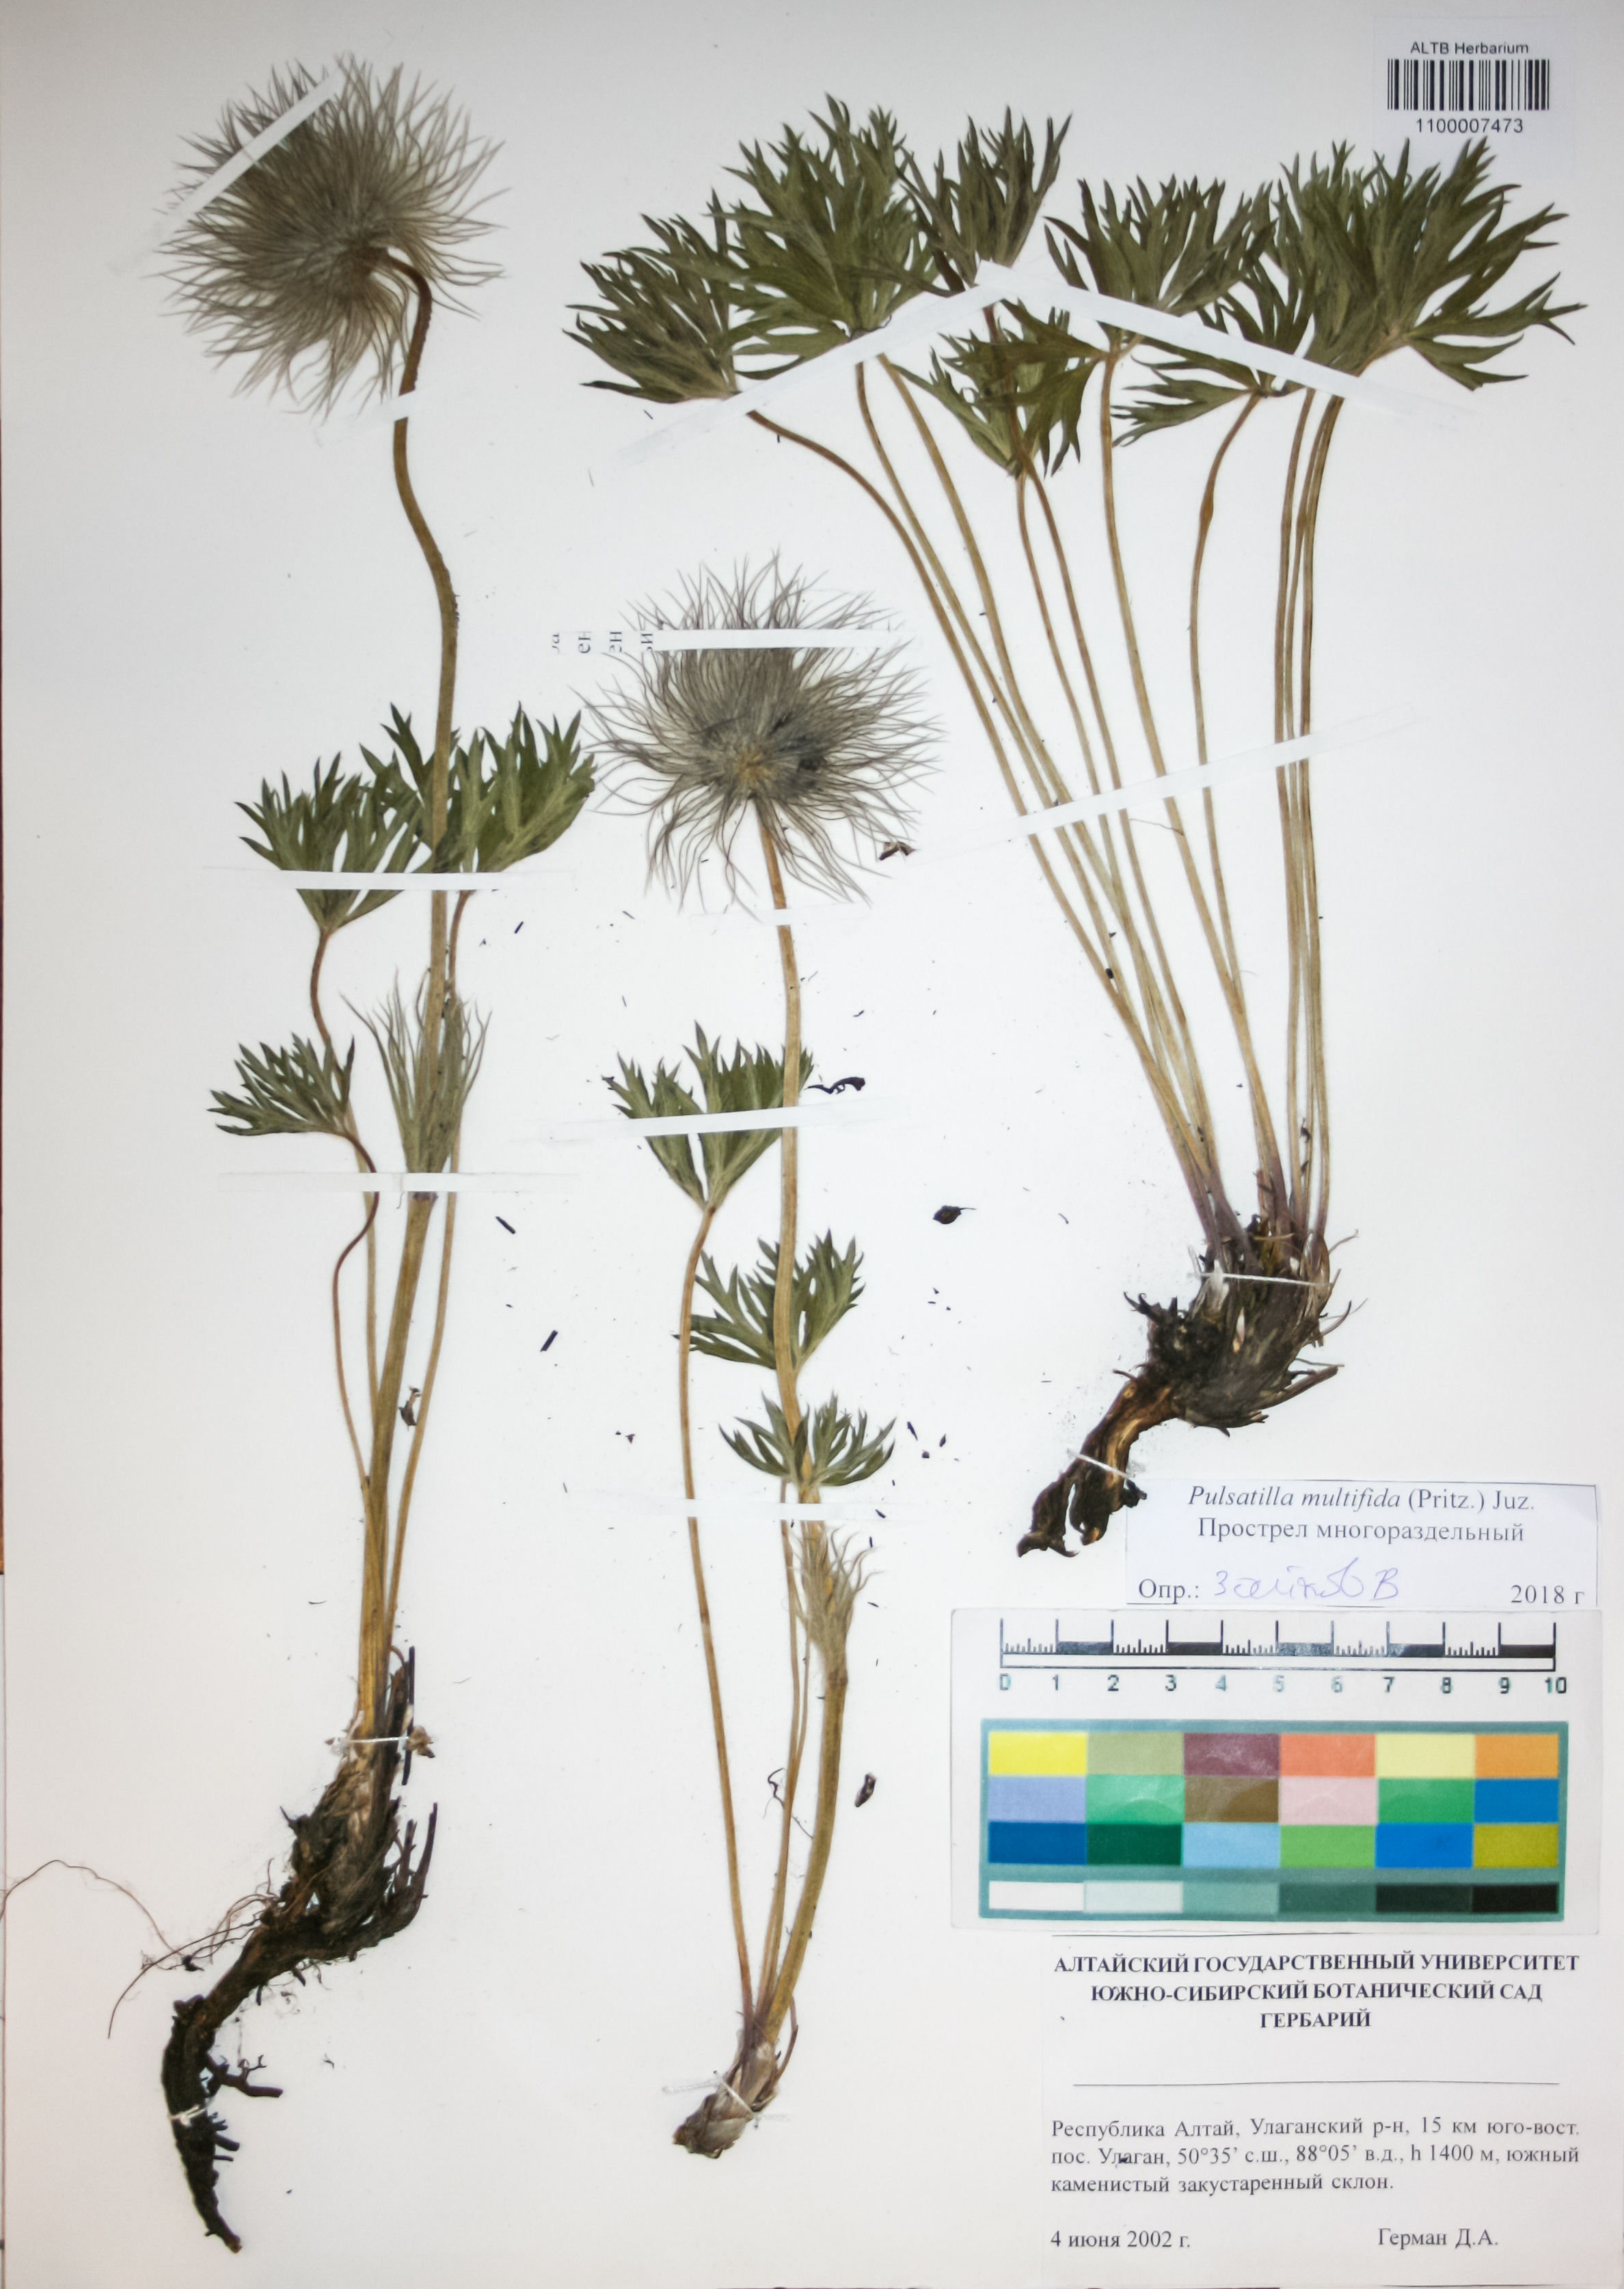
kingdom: Plantae
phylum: Tracheophyta
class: Magnoliopsida
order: Ranunculales
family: Ranunculaceae
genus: Pulsatilla
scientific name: Pulsatilla patens
